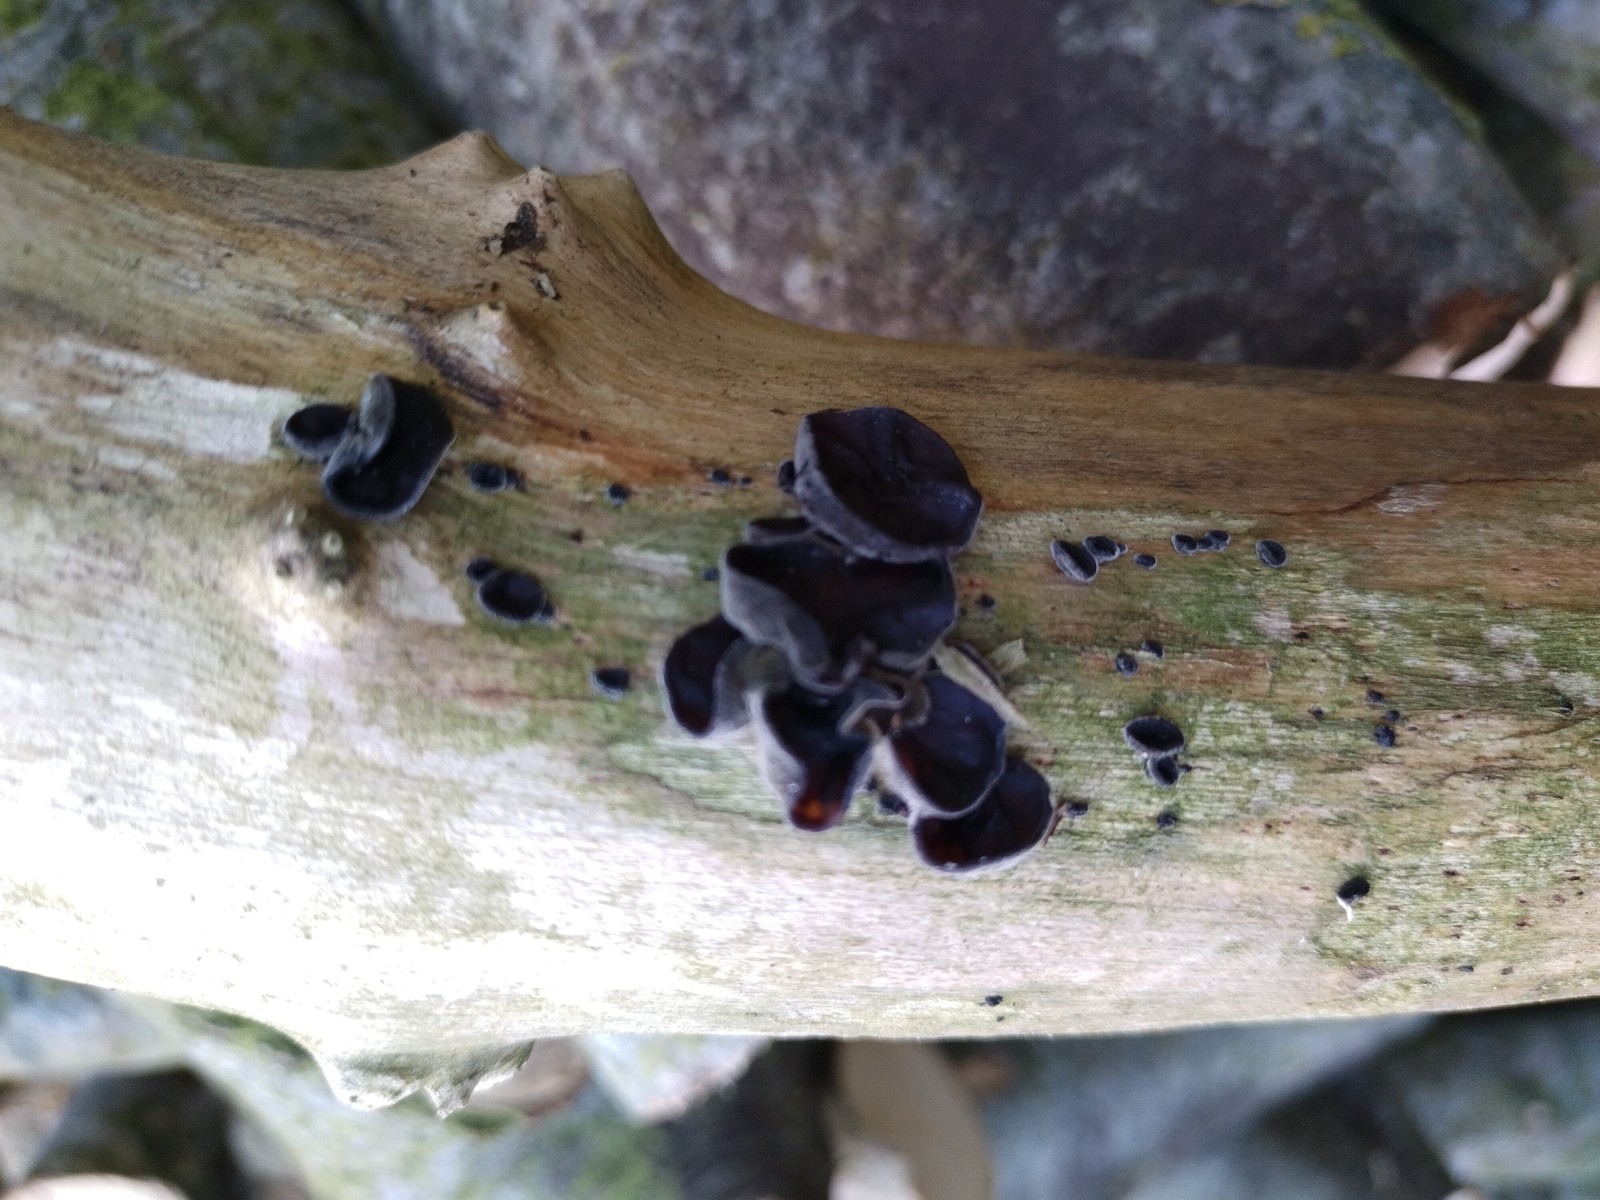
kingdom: Fungi
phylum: Basidiomycota
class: Agaricomycetes
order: Auriculariales
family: Auriculariaceae
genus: Auricularia
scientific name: Auricularia auricula-judae
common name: almindelig judasøre
